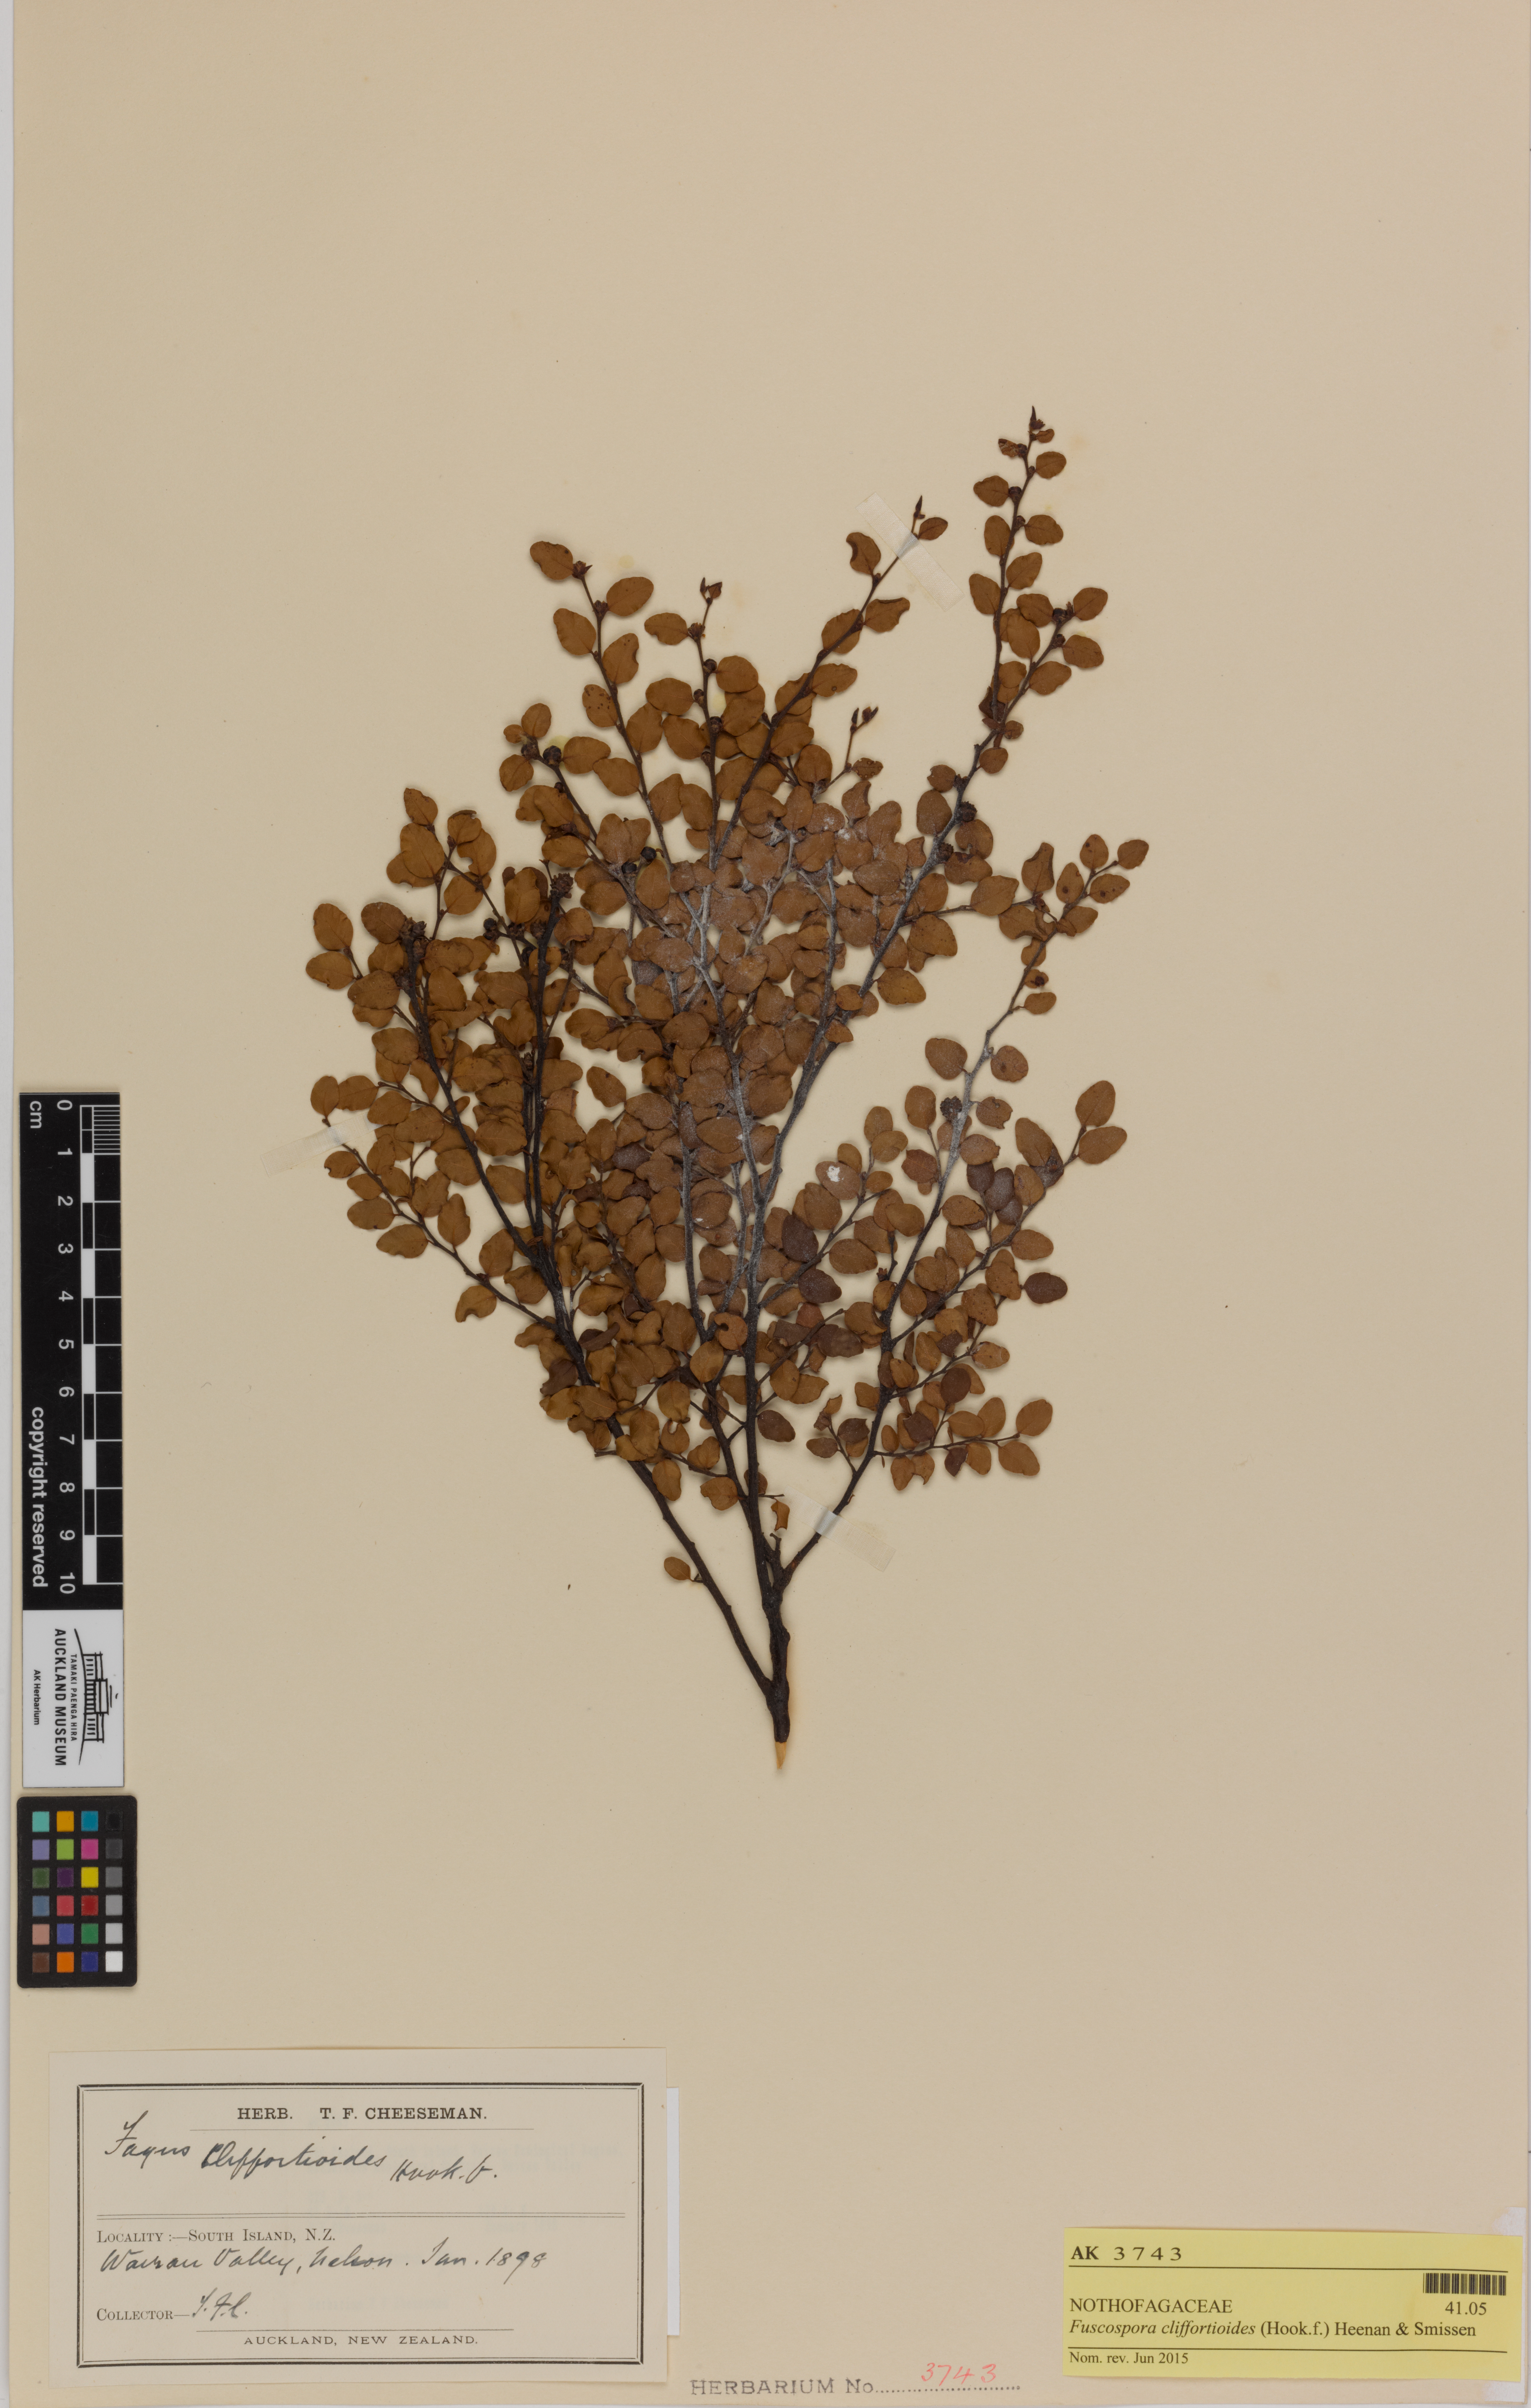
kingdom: Plantae
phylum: Tracheophyta
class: Magnoliopsida
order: Fagales
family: Nothofagaceae
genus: Nothofagus
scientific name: Nothofagus cliffortioides
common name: Mountain beech
